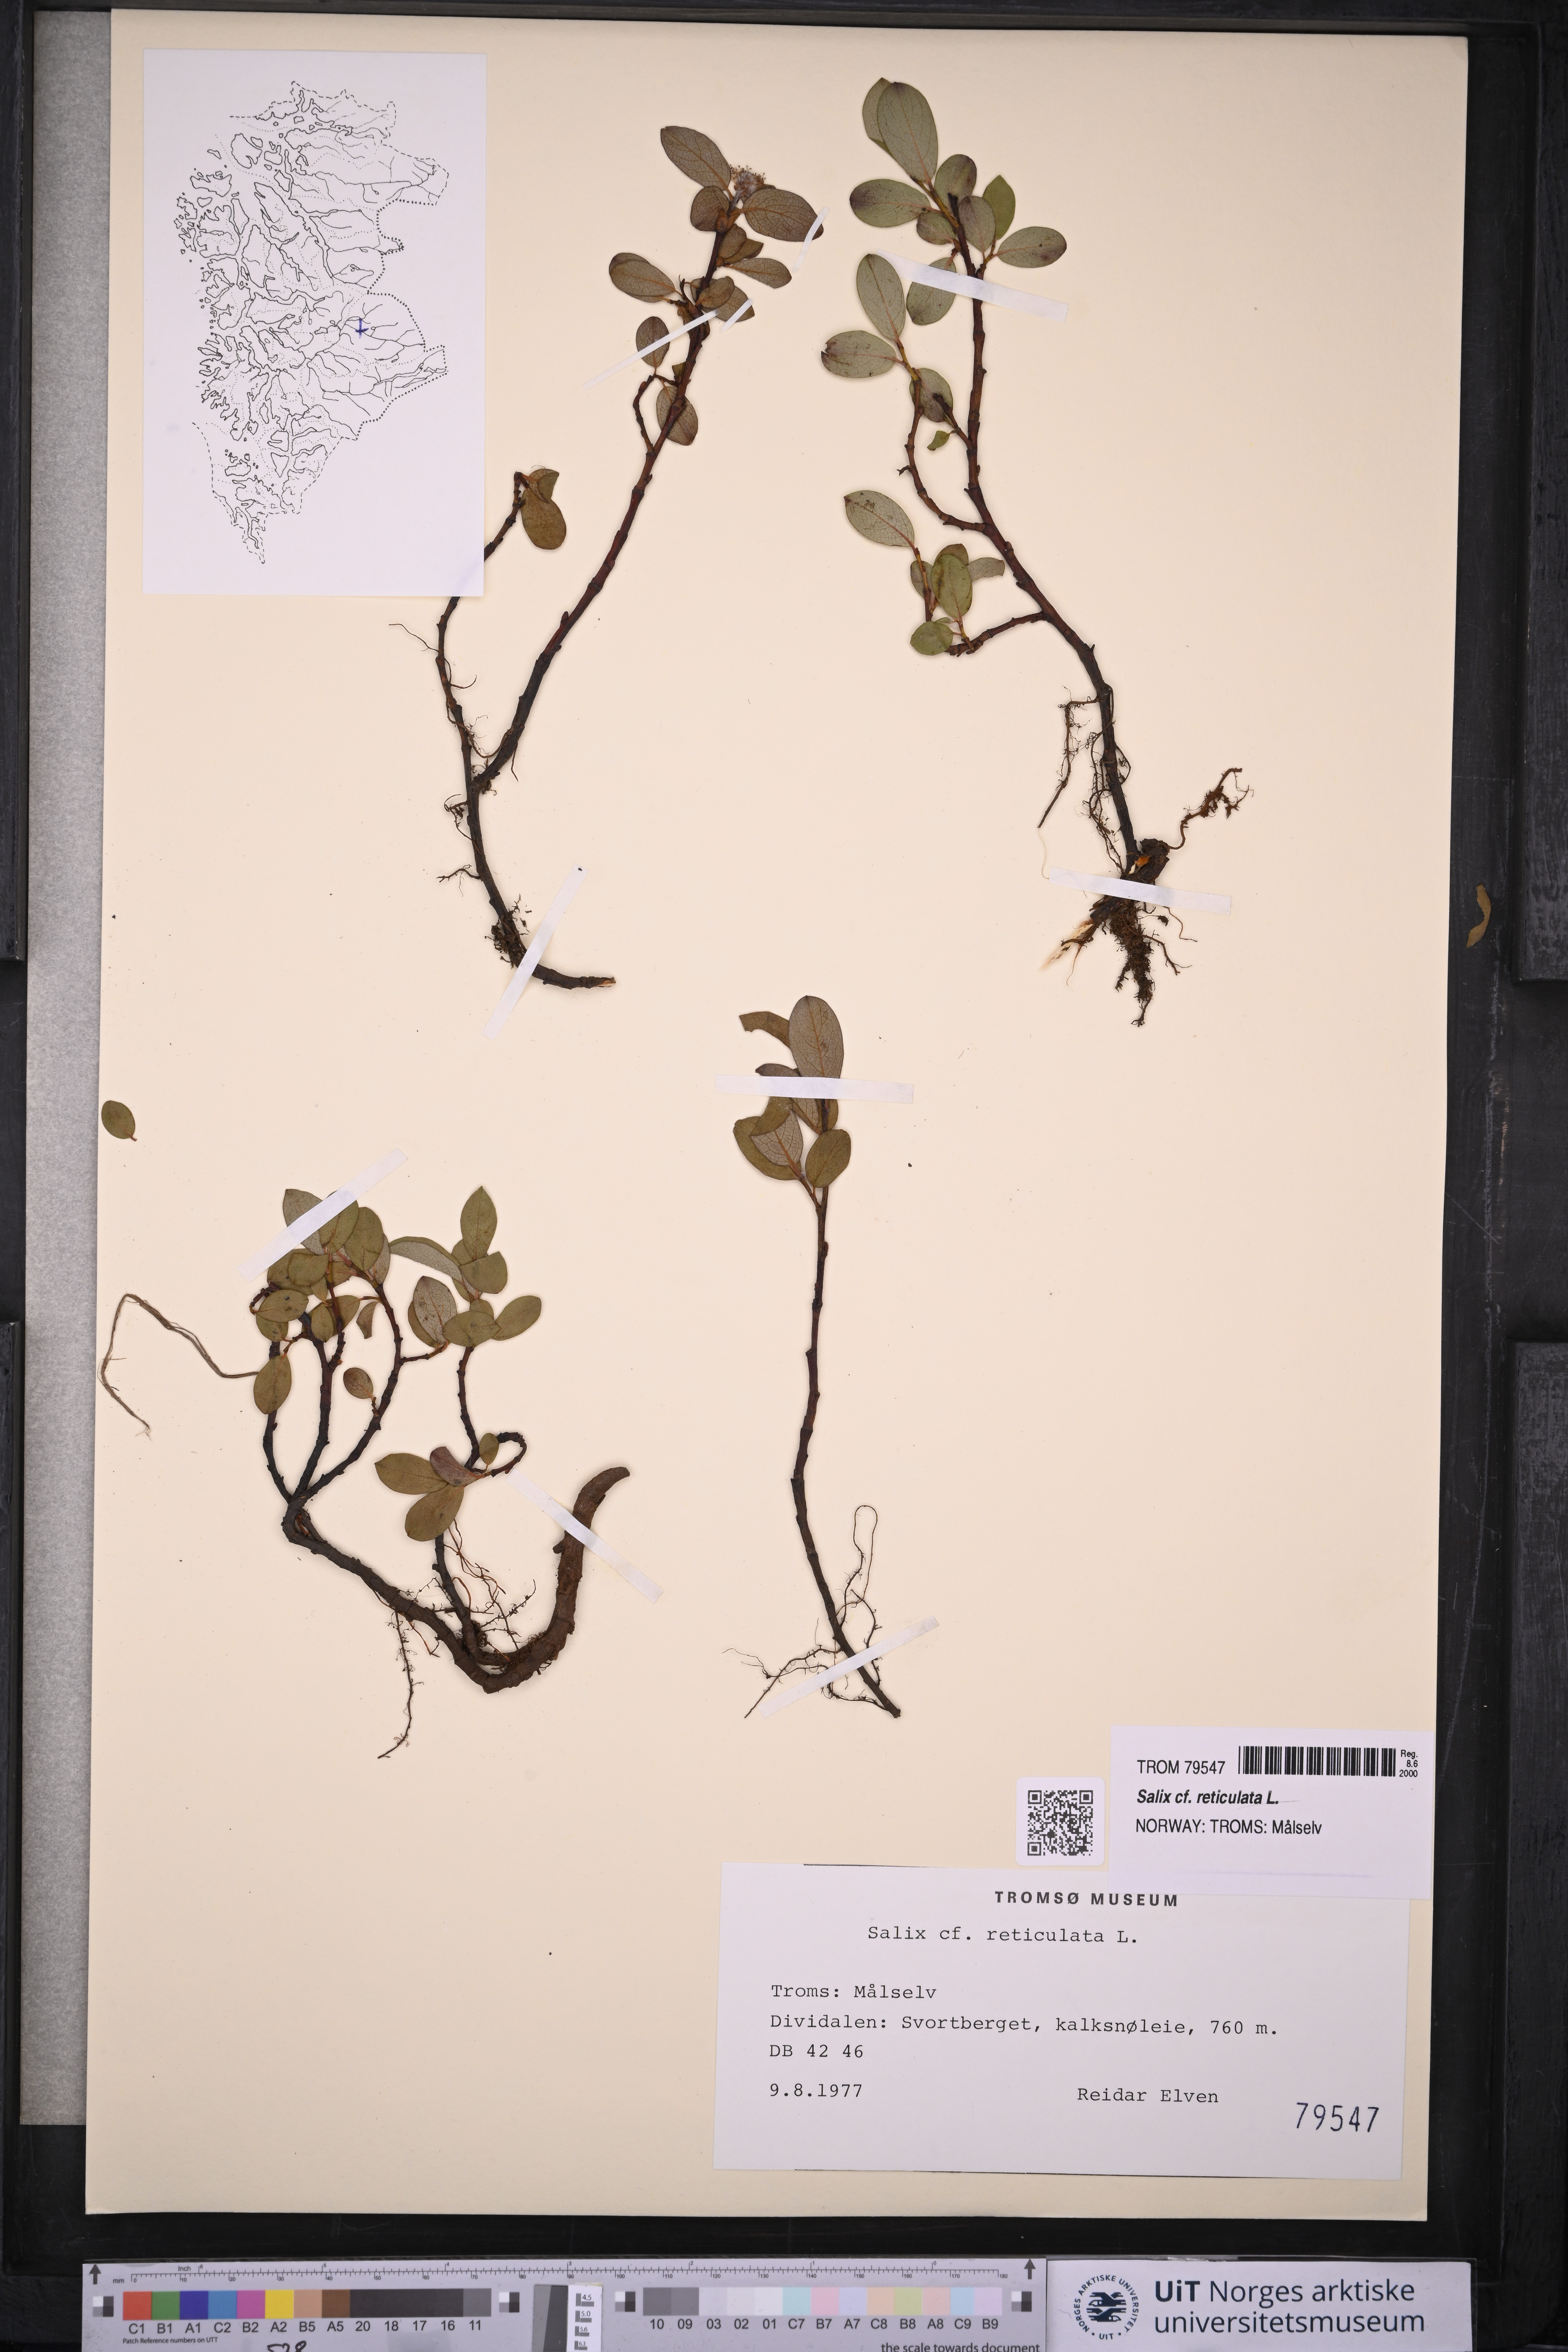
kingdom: Plantae
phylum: Tracheophyta
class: Magnoliopsida
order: Malpighiales
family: Salicaceae
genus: Salix
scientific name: Salix reticulata
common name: Net-leaved willow
